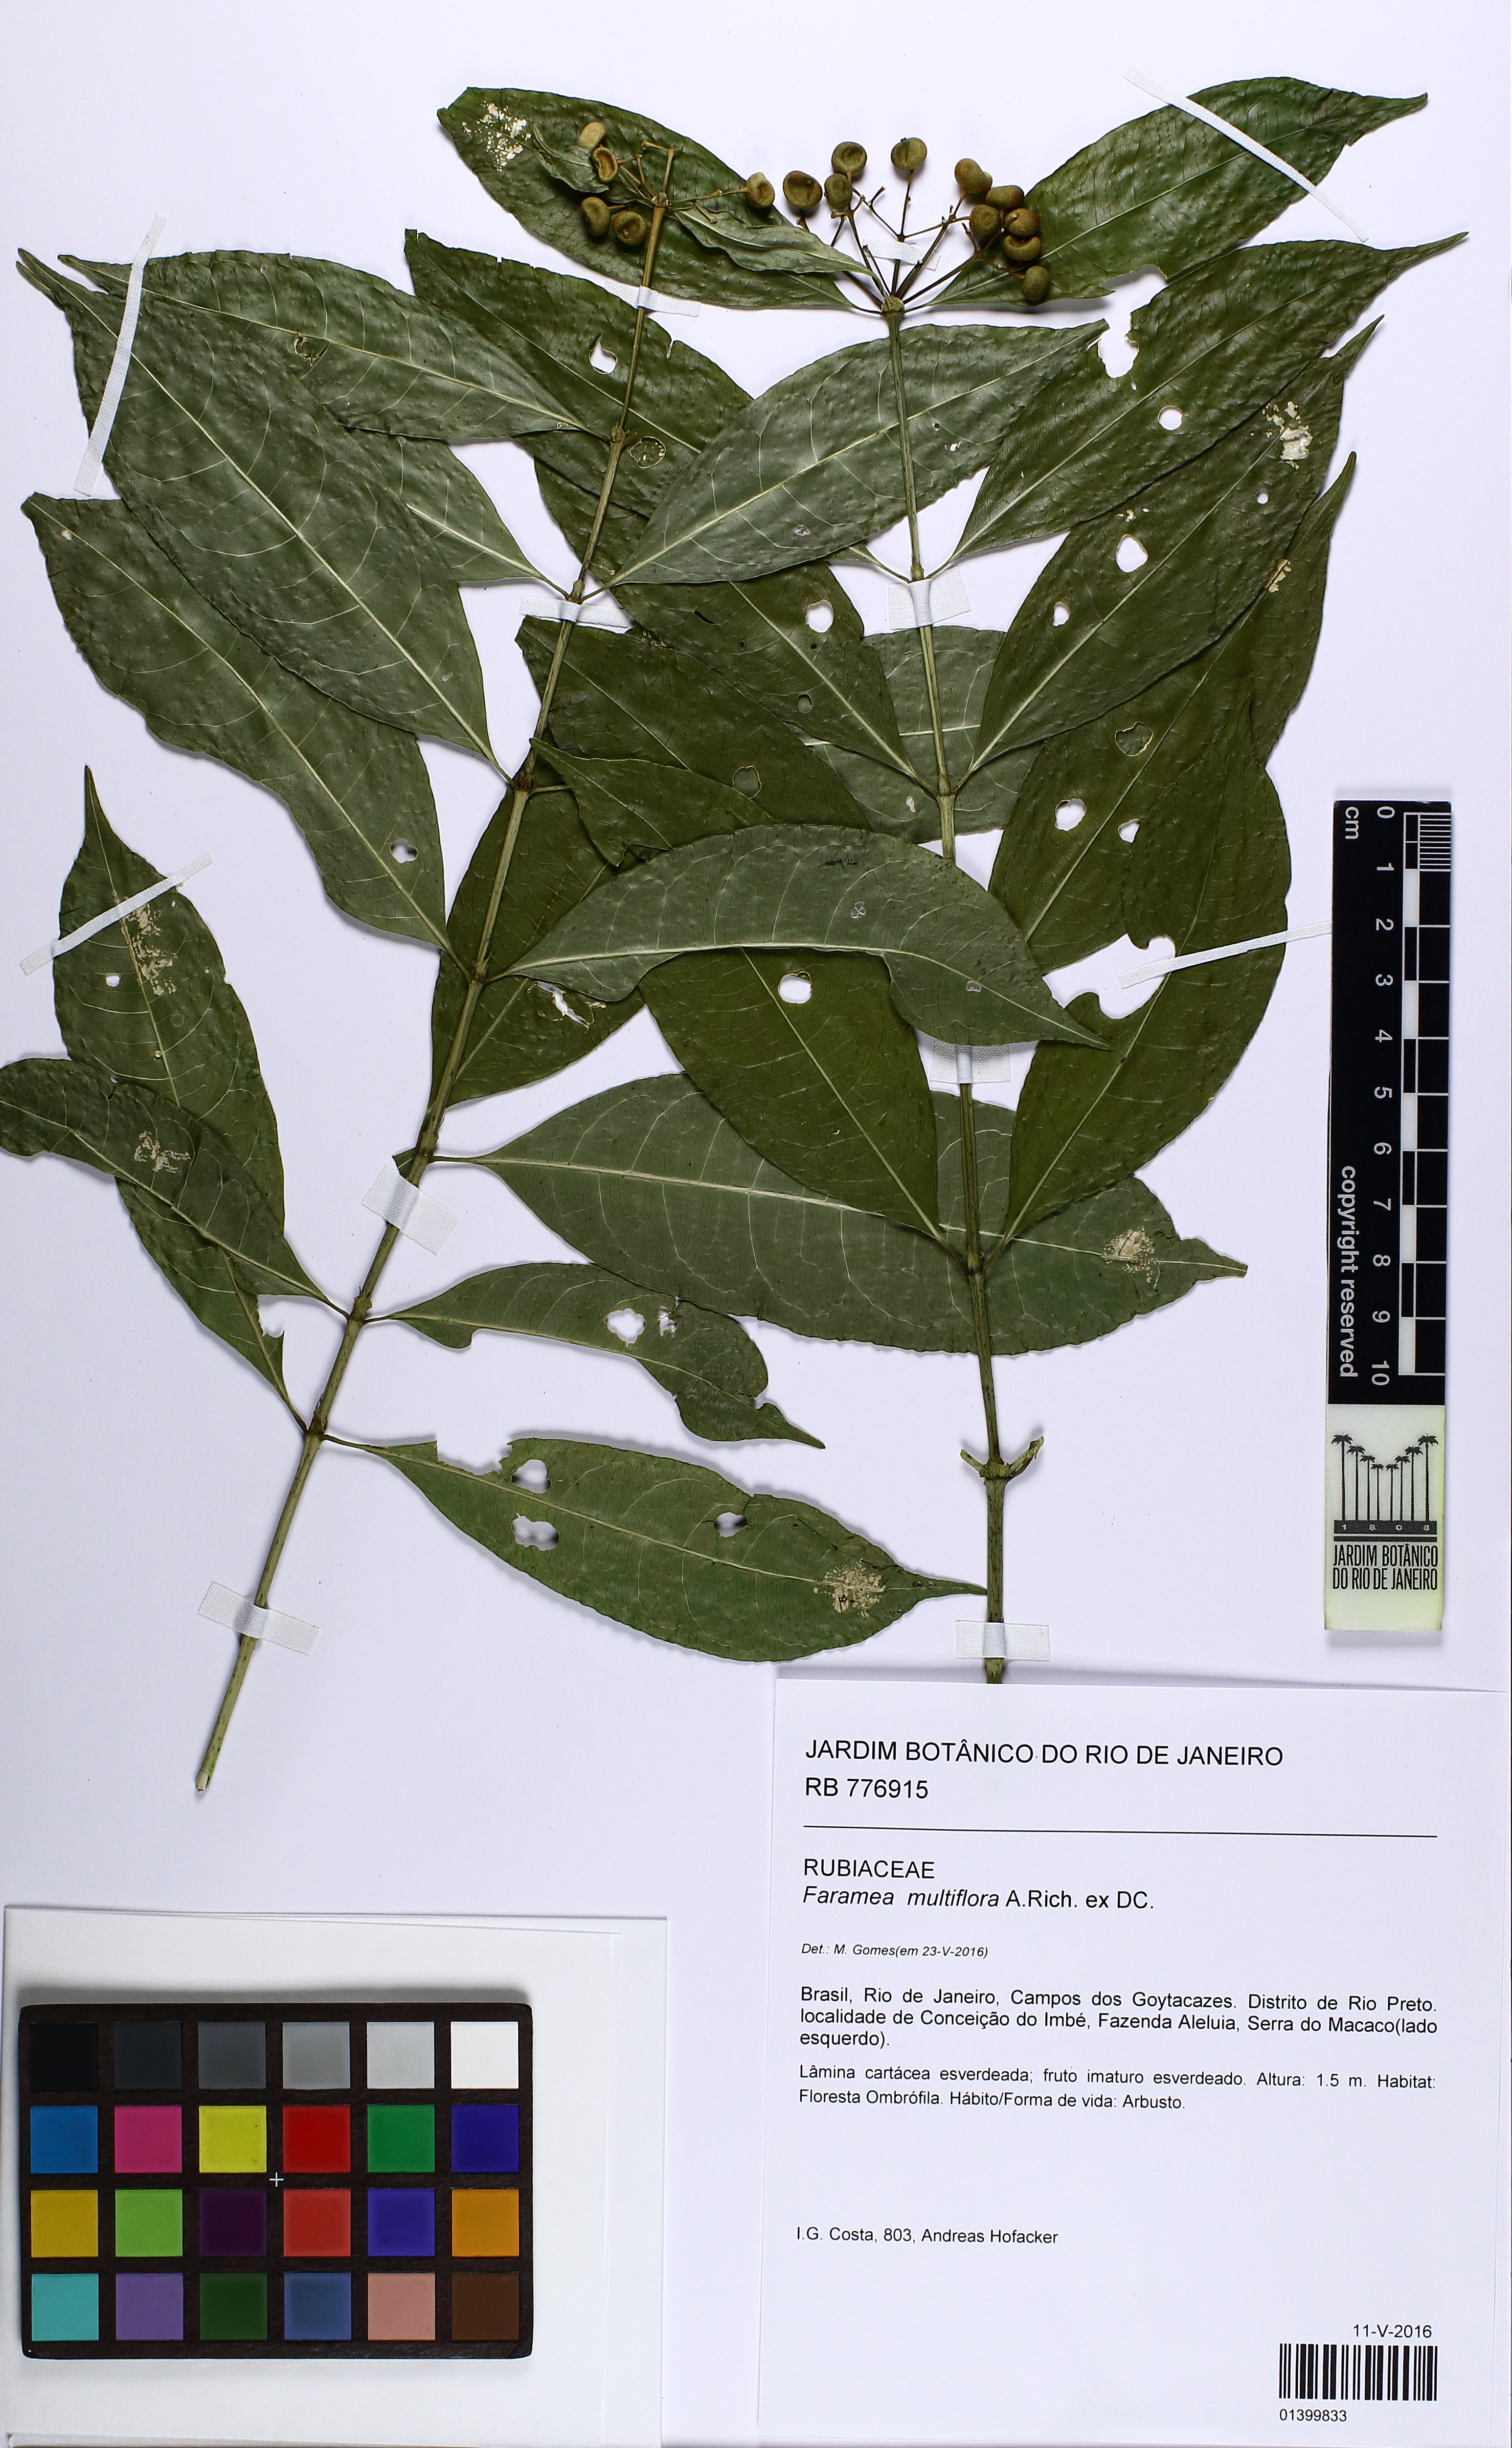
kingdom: Plantae
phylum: Tracheophyta
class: Magnoliopsida
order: Gentianales
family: Rubiaceae
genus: Faramea
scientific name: Faramea multiflora
